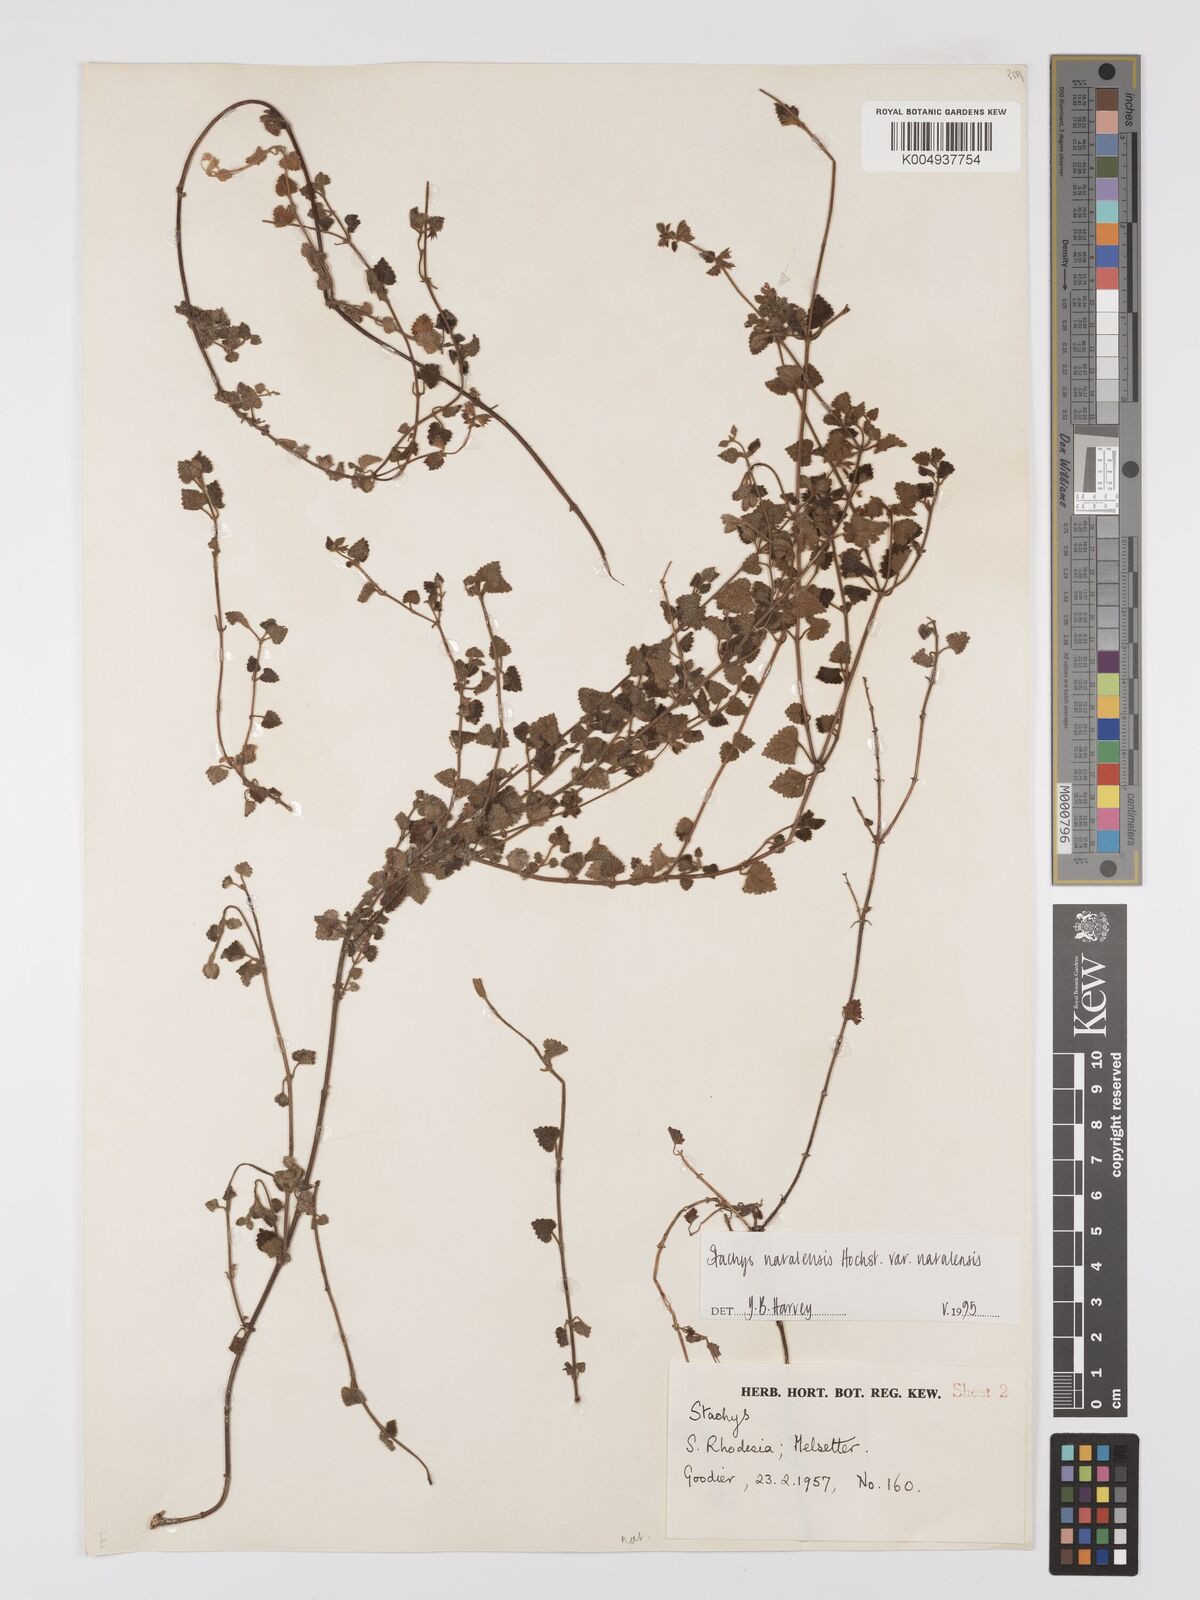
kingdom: Plantae
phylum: Tracheophyta
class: Magnoliopsida
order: Lamiales
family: Lamiaceae
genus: Stachys
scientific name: Stachys natalensis
